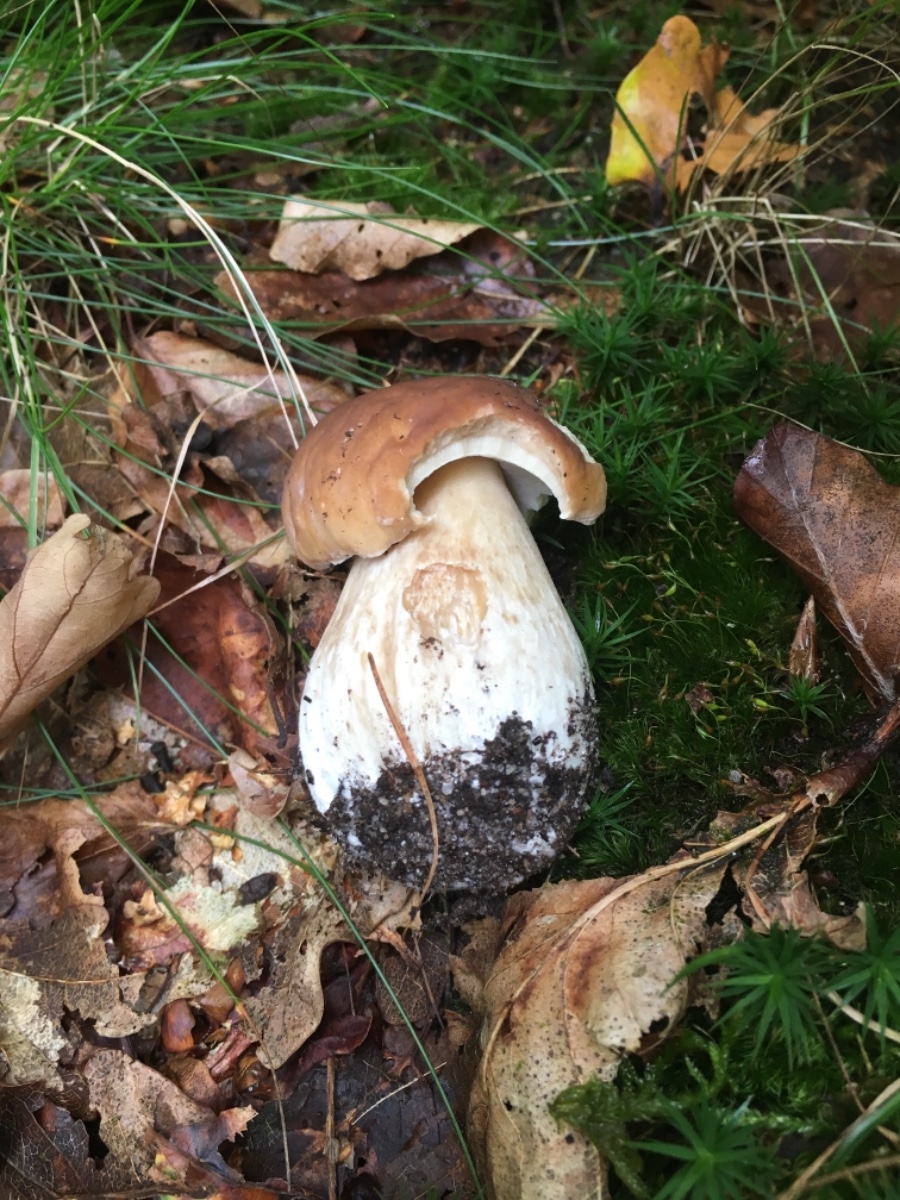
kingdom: Fungi
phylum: Basidiomycota
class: Agaricomycetes
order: Boletales
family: Boletaceae
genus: Boletus
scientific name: Boletus edulis
